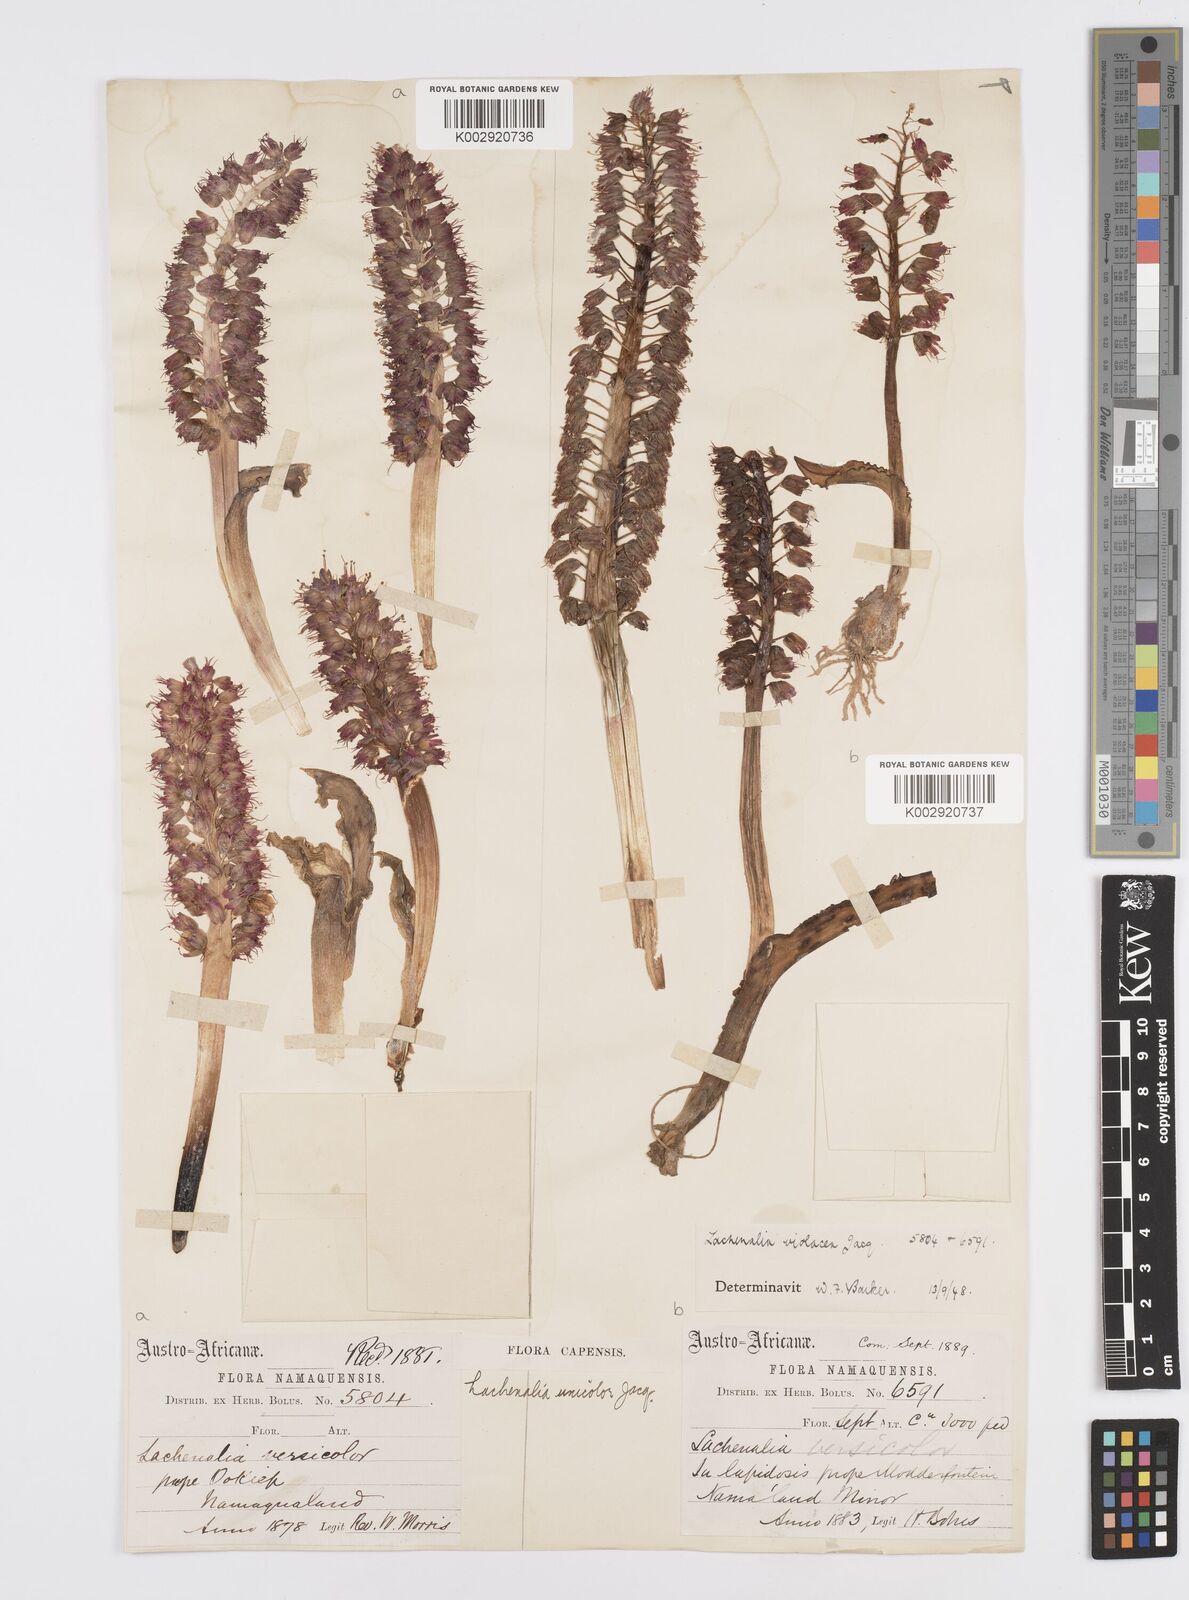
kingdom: Plantae
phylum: Tracheophyta
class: Liliopsida
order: Asparagales
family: Asparagaceae
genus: Lachenalia
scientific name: Lachenalia violacea
